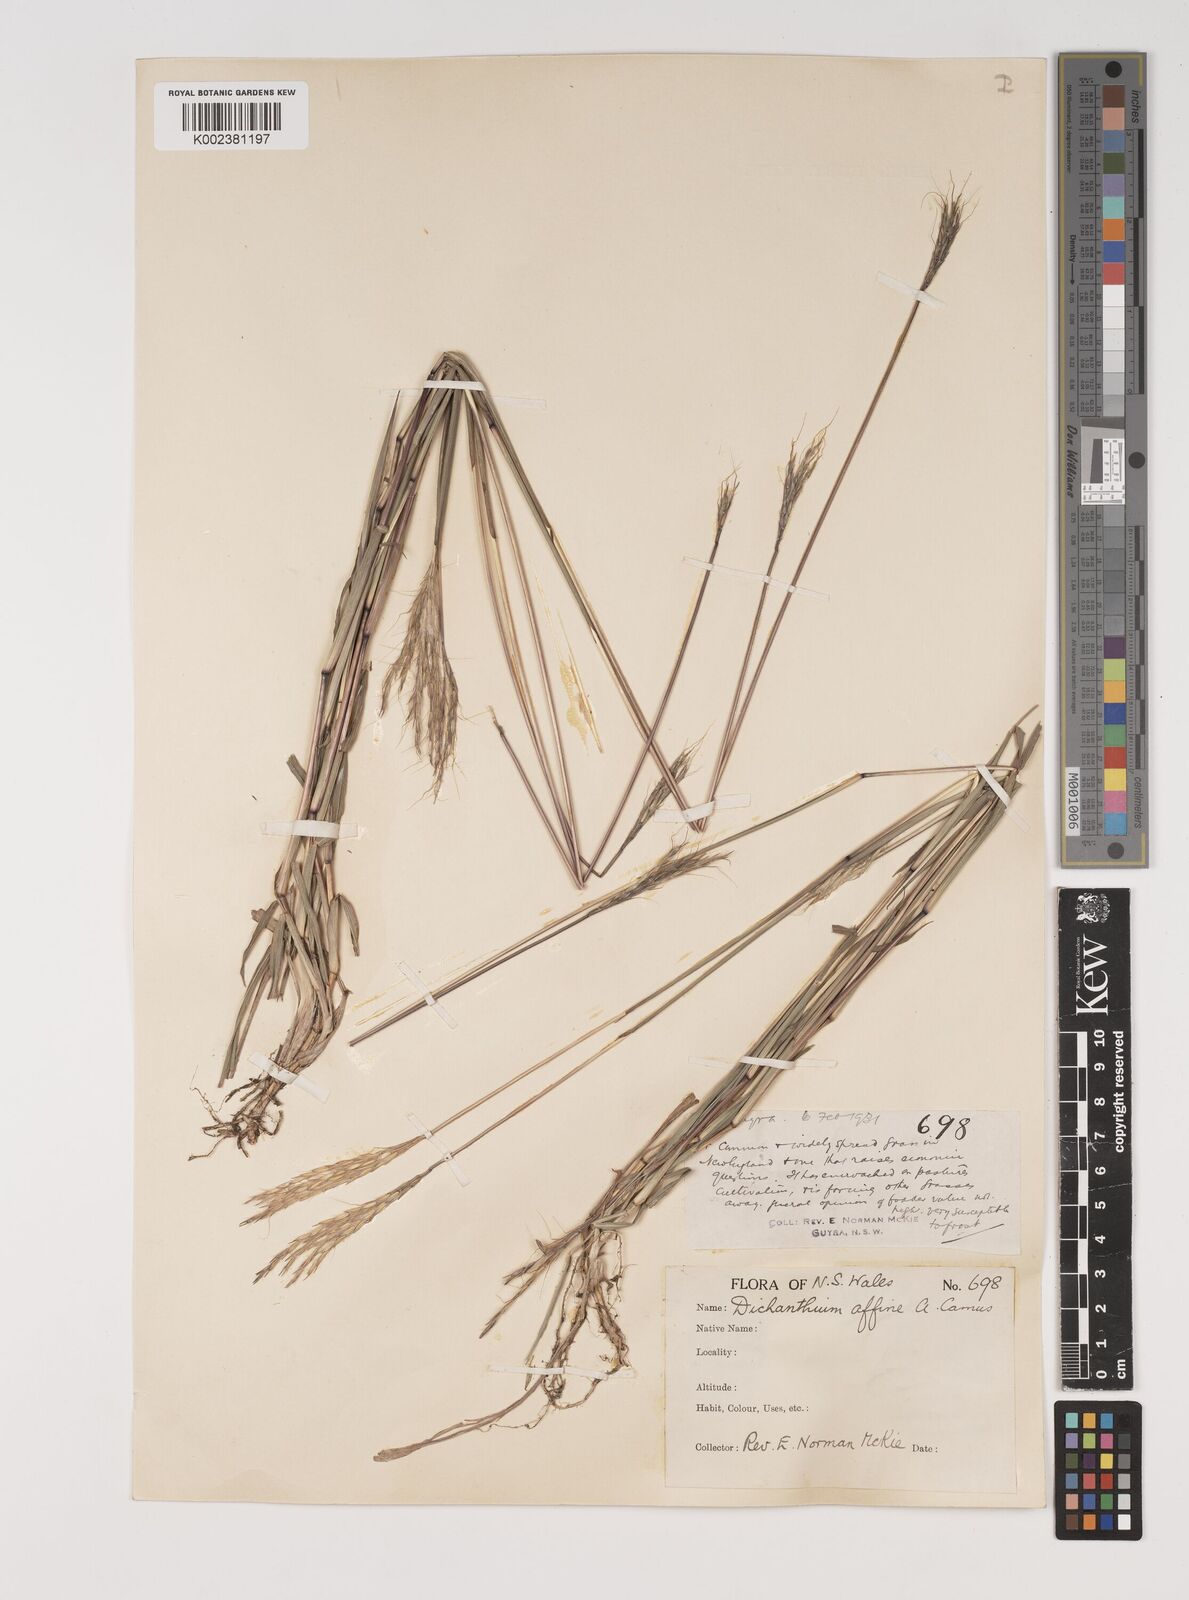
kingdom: Plantae
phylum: Tracheophyta
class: Liliopsida
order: Poales
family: Poaceae
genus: Bothriochloa
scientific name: Bothriochloa macra
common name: Pitted beard grass
